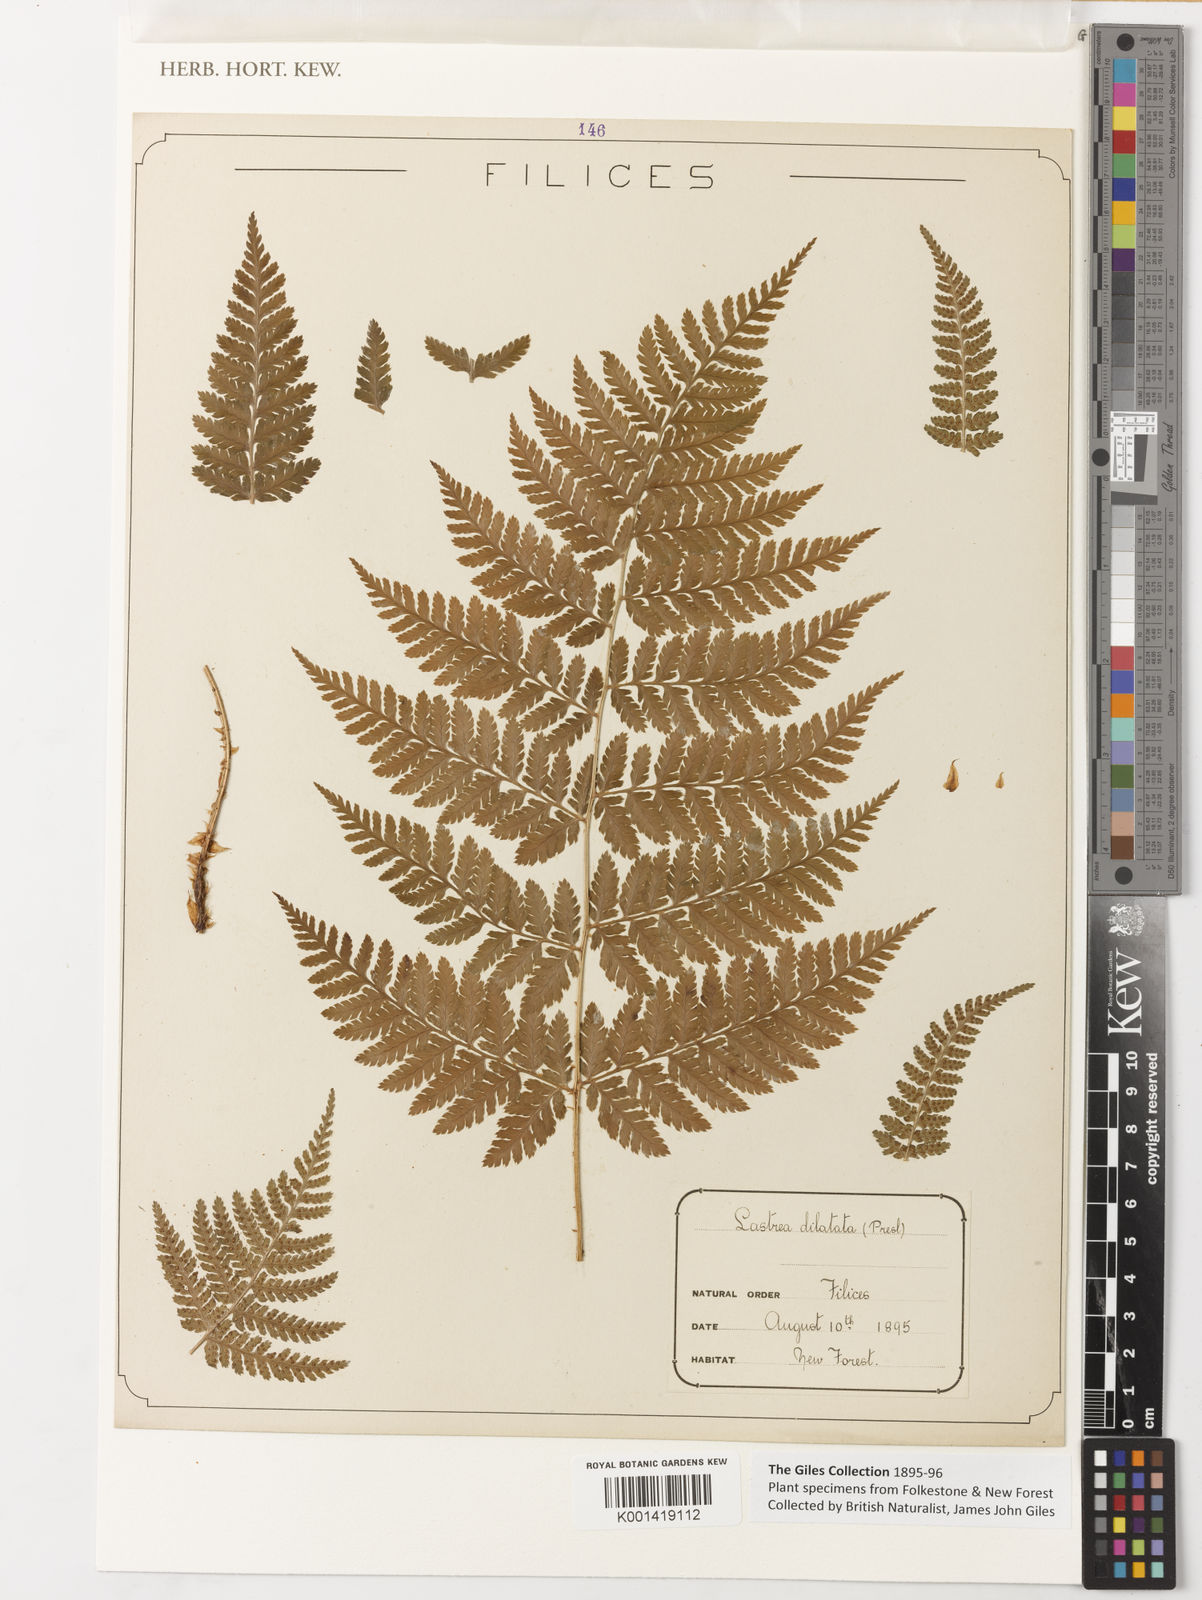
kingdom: Plantae
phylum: Tracheophyta
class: Polypodiopsida
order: Polypodiales
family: Dryopteridaceae
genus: Dryopteris
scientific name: Dryopteris dilatata
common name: Broad buckler-fern
